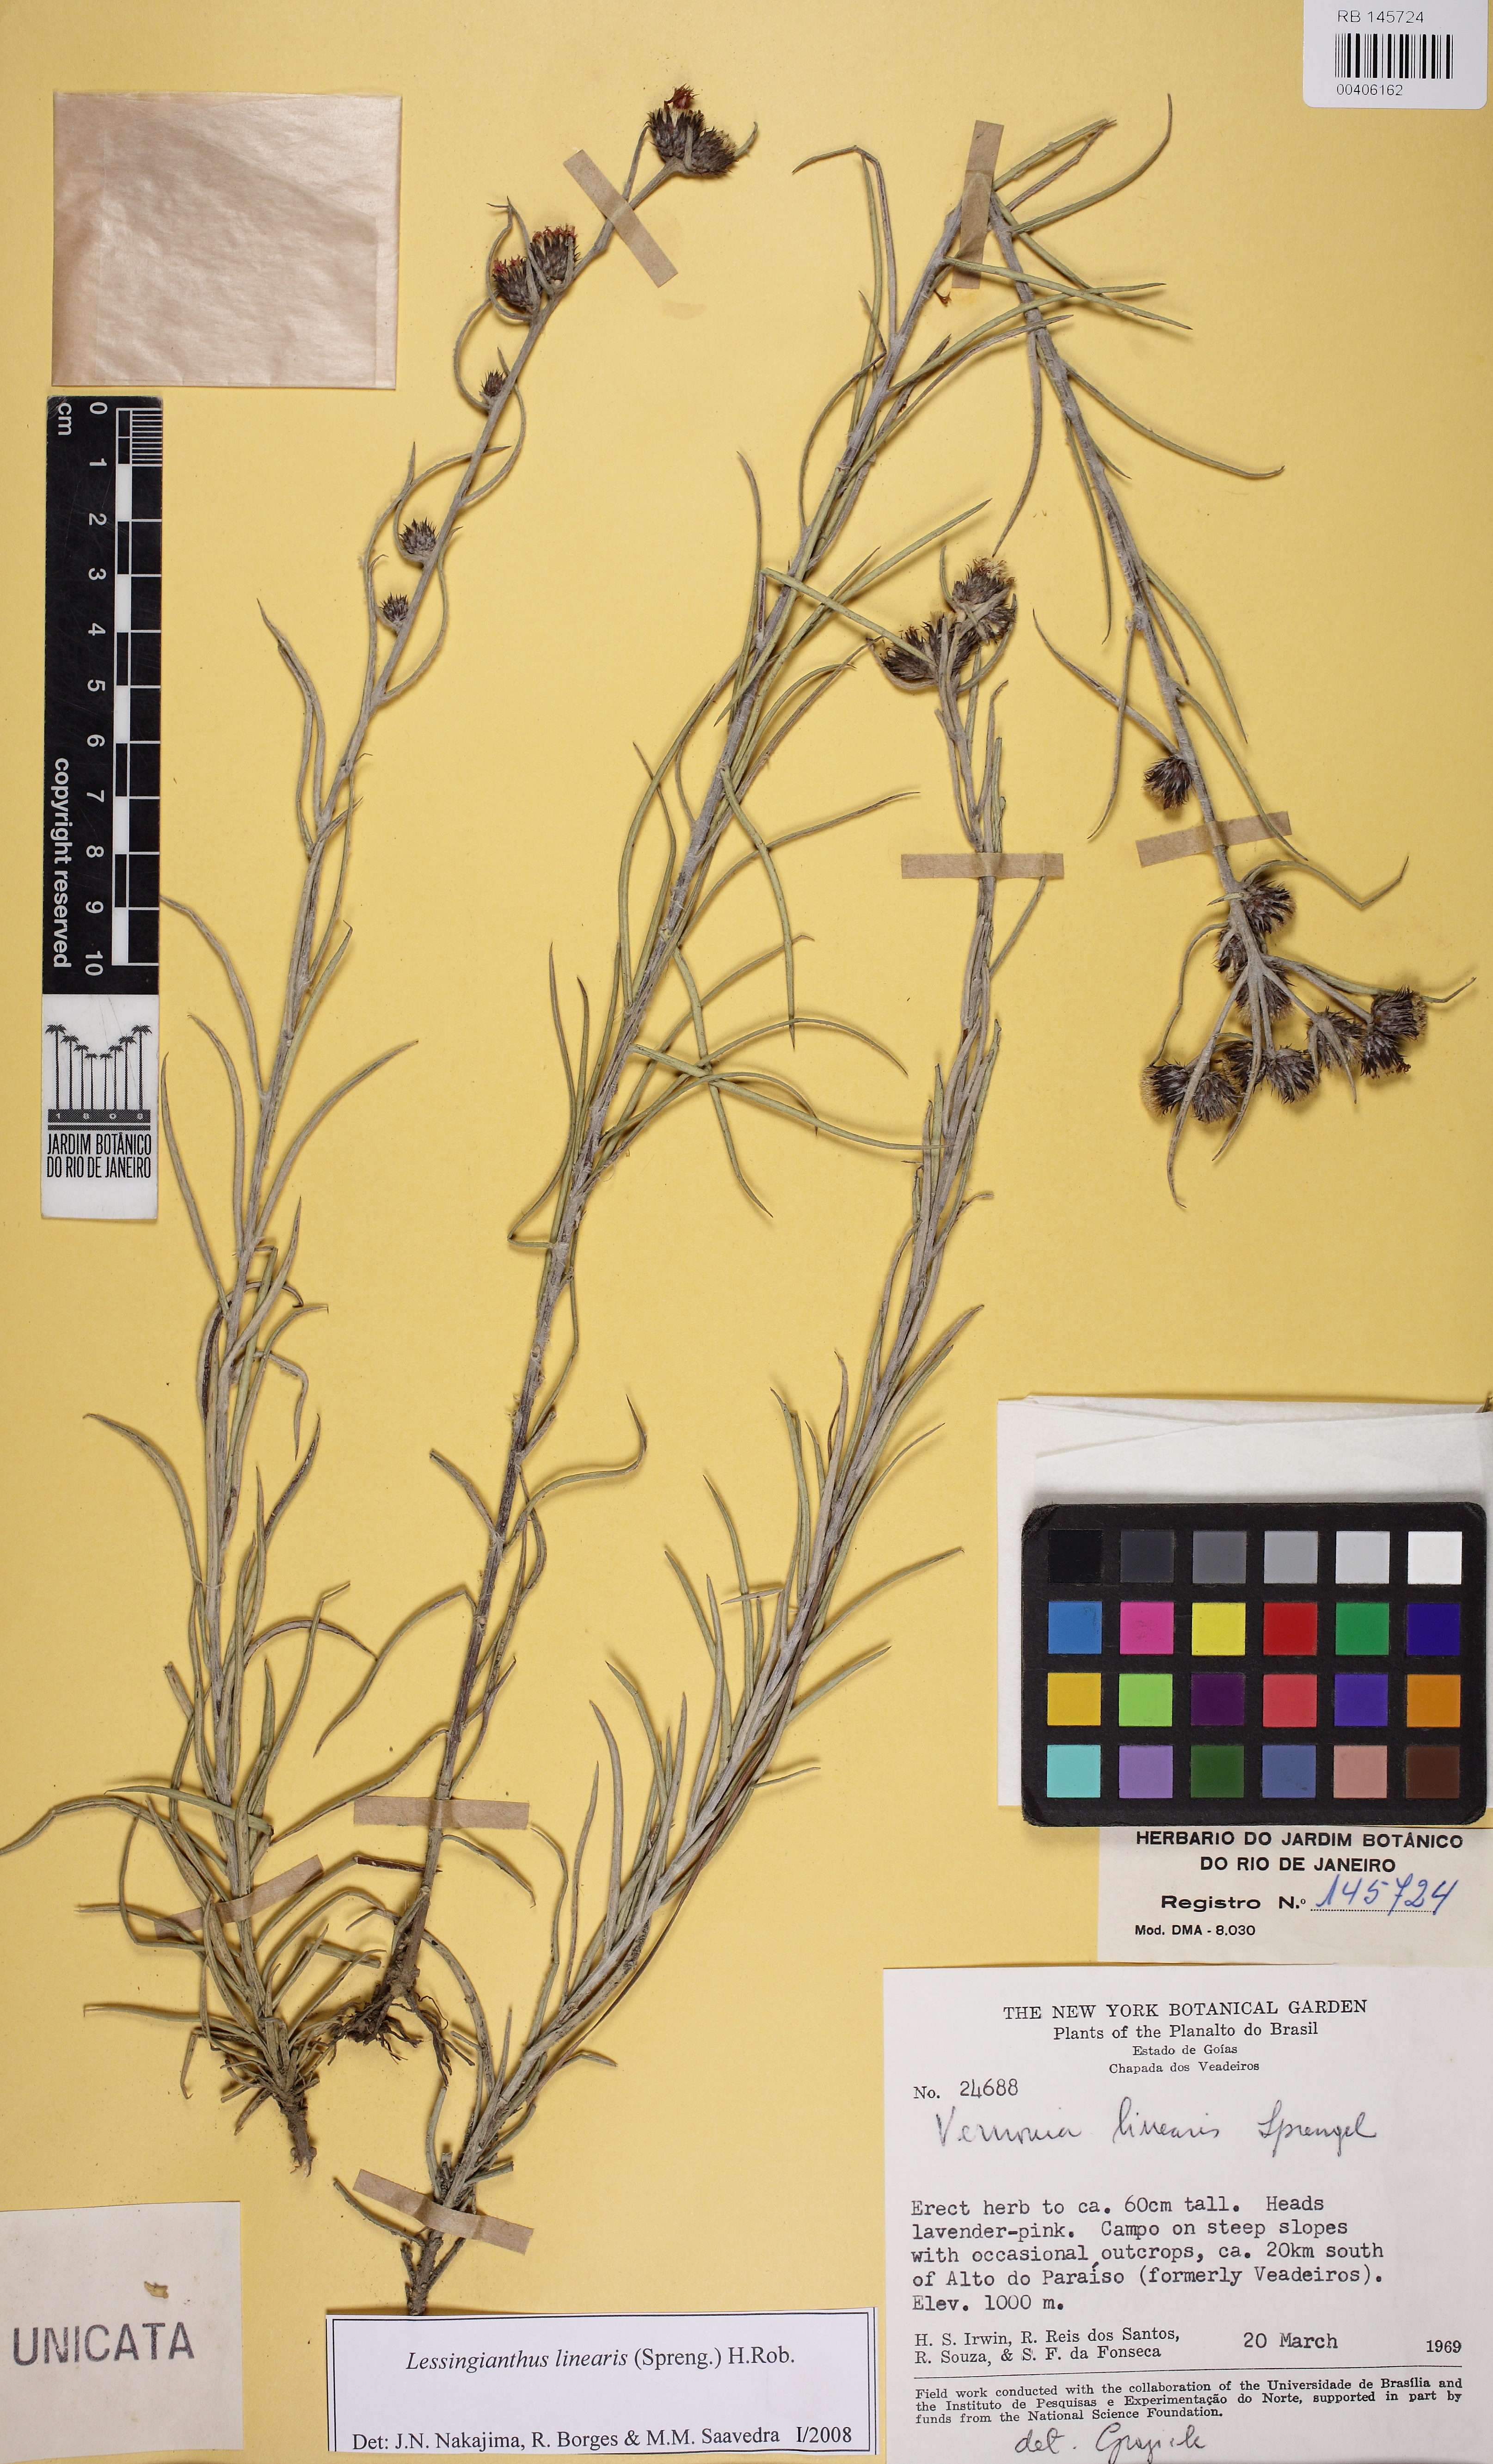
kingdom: Plantae
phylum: Tracheophyta
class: Magnoliopsida
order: Asterales
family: Asteraceae
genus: Lessingianthus
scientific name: Lessingianthus linearis
